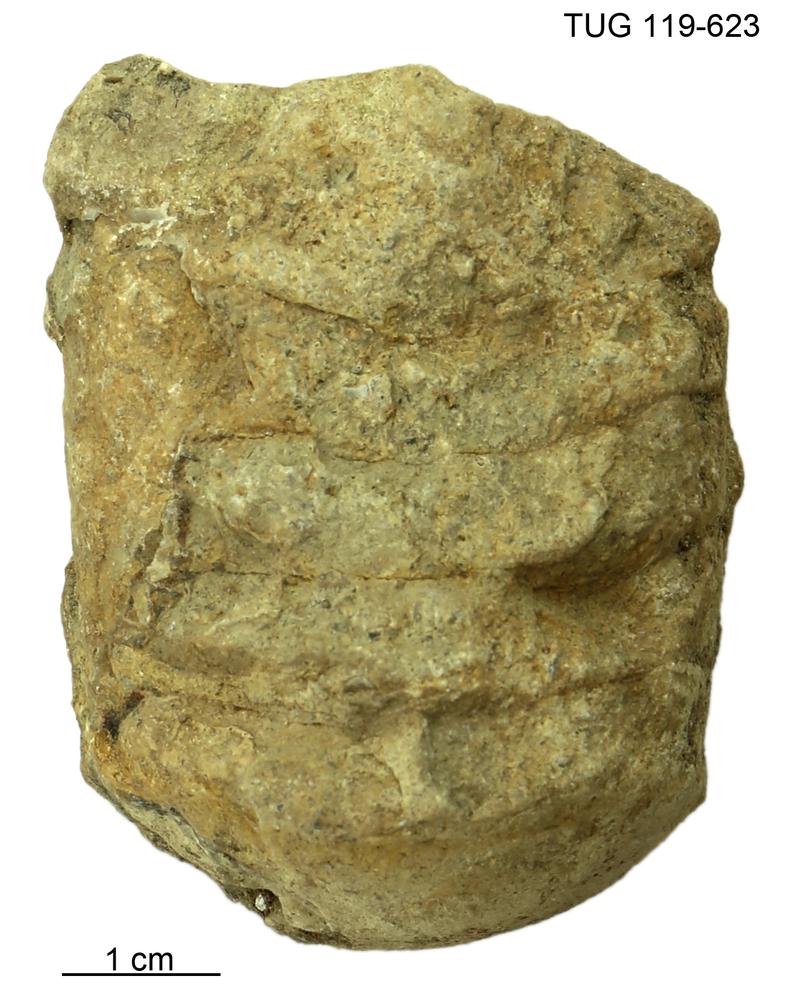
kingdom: Animalia
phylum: Mollusca
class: Cephalopoda
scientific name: Cephalopoda
